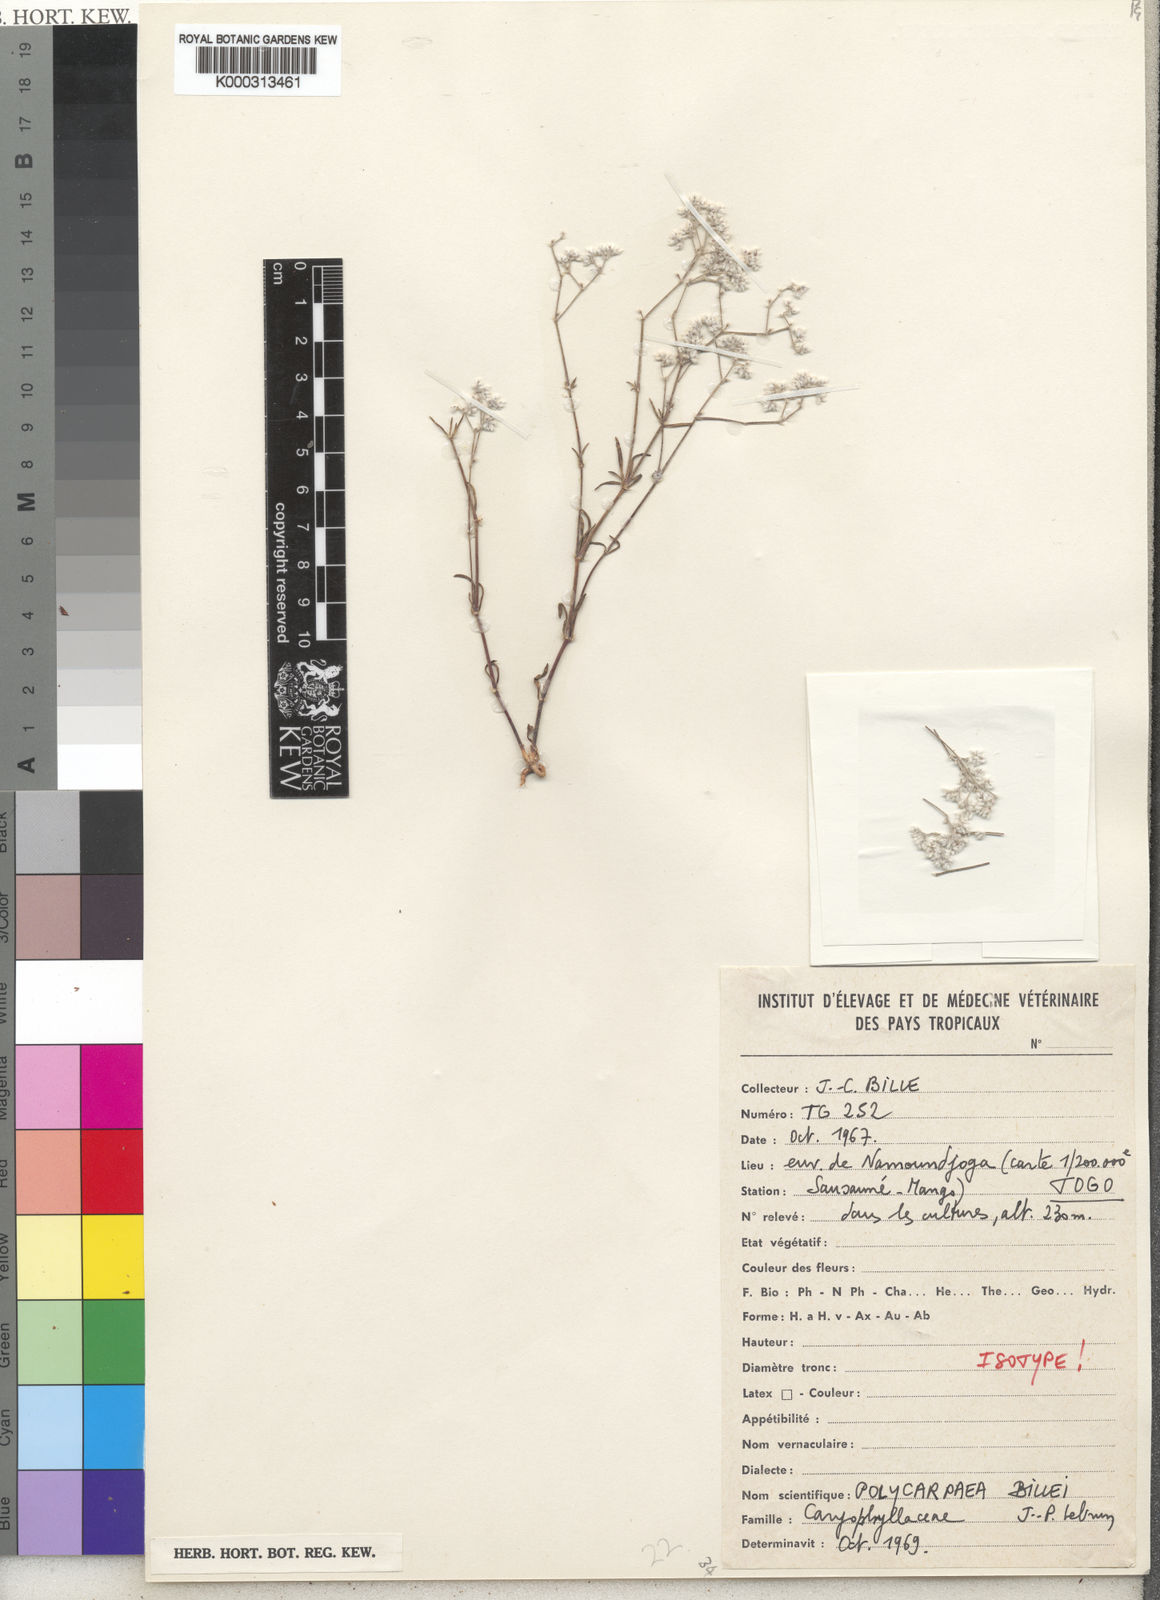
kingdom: Plantae
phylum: Tracheophyta
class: Magnoliopsida
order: Caryophyllales
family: Caryophyllaceae
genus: Polycarpaea
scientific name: Polycarpaea billei
